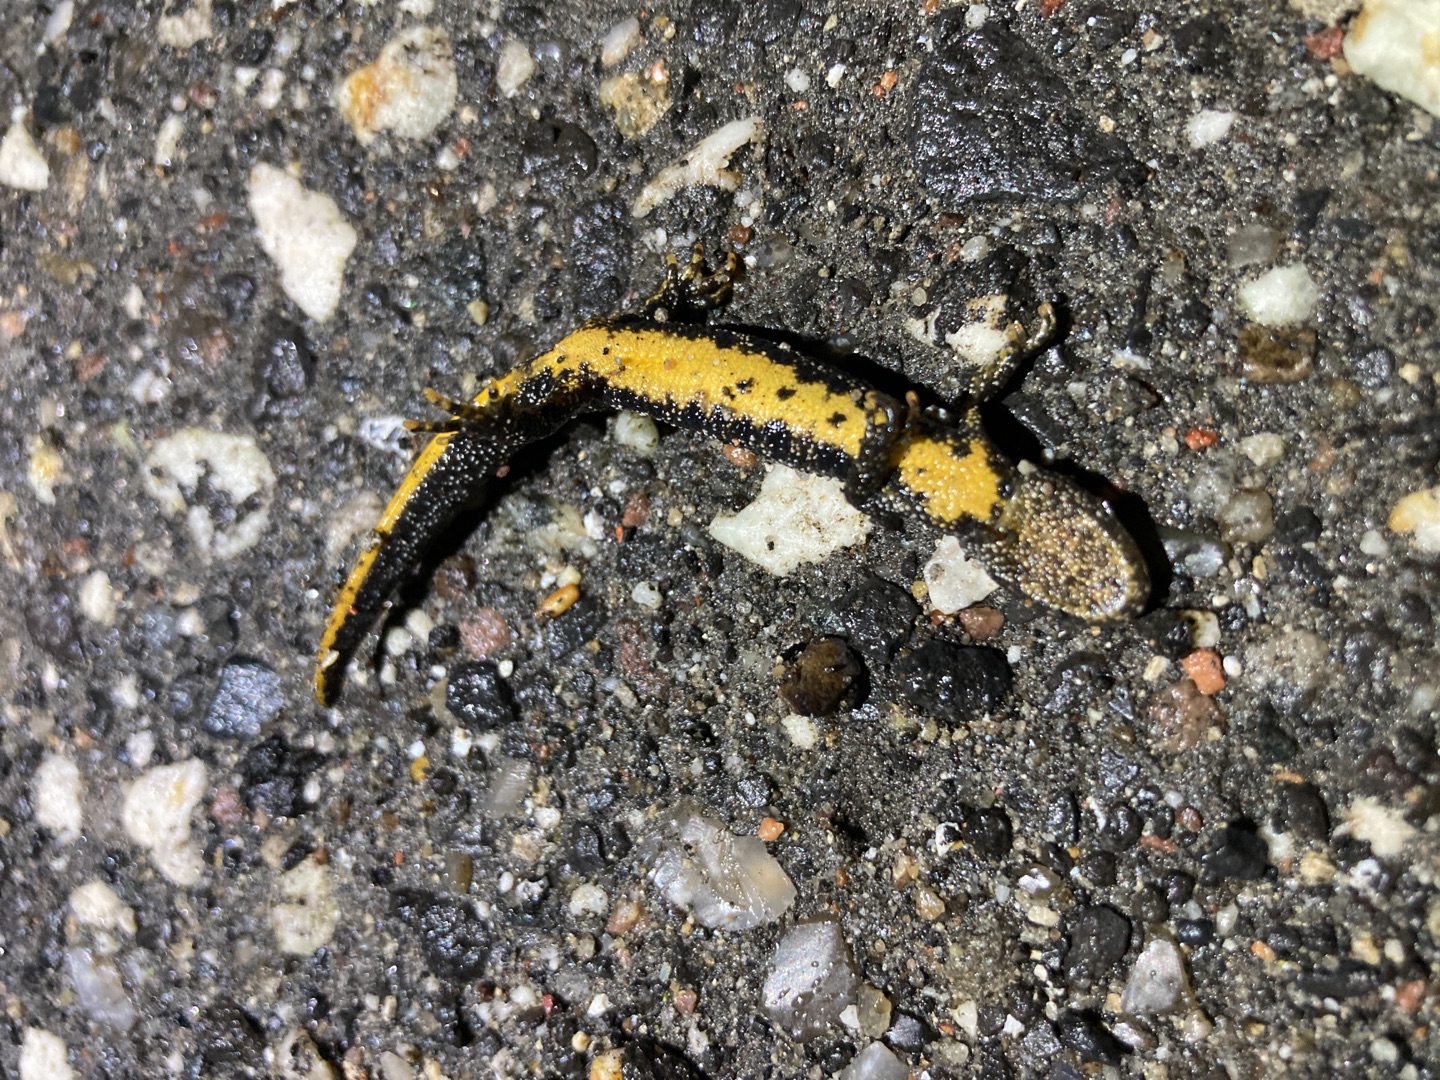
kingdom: Animalia
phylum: Chordata
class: Amphibia
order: Caudata
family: Salamandridae
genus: Triturus
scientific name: Triturus cristatus
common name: Stor vandsalamander
